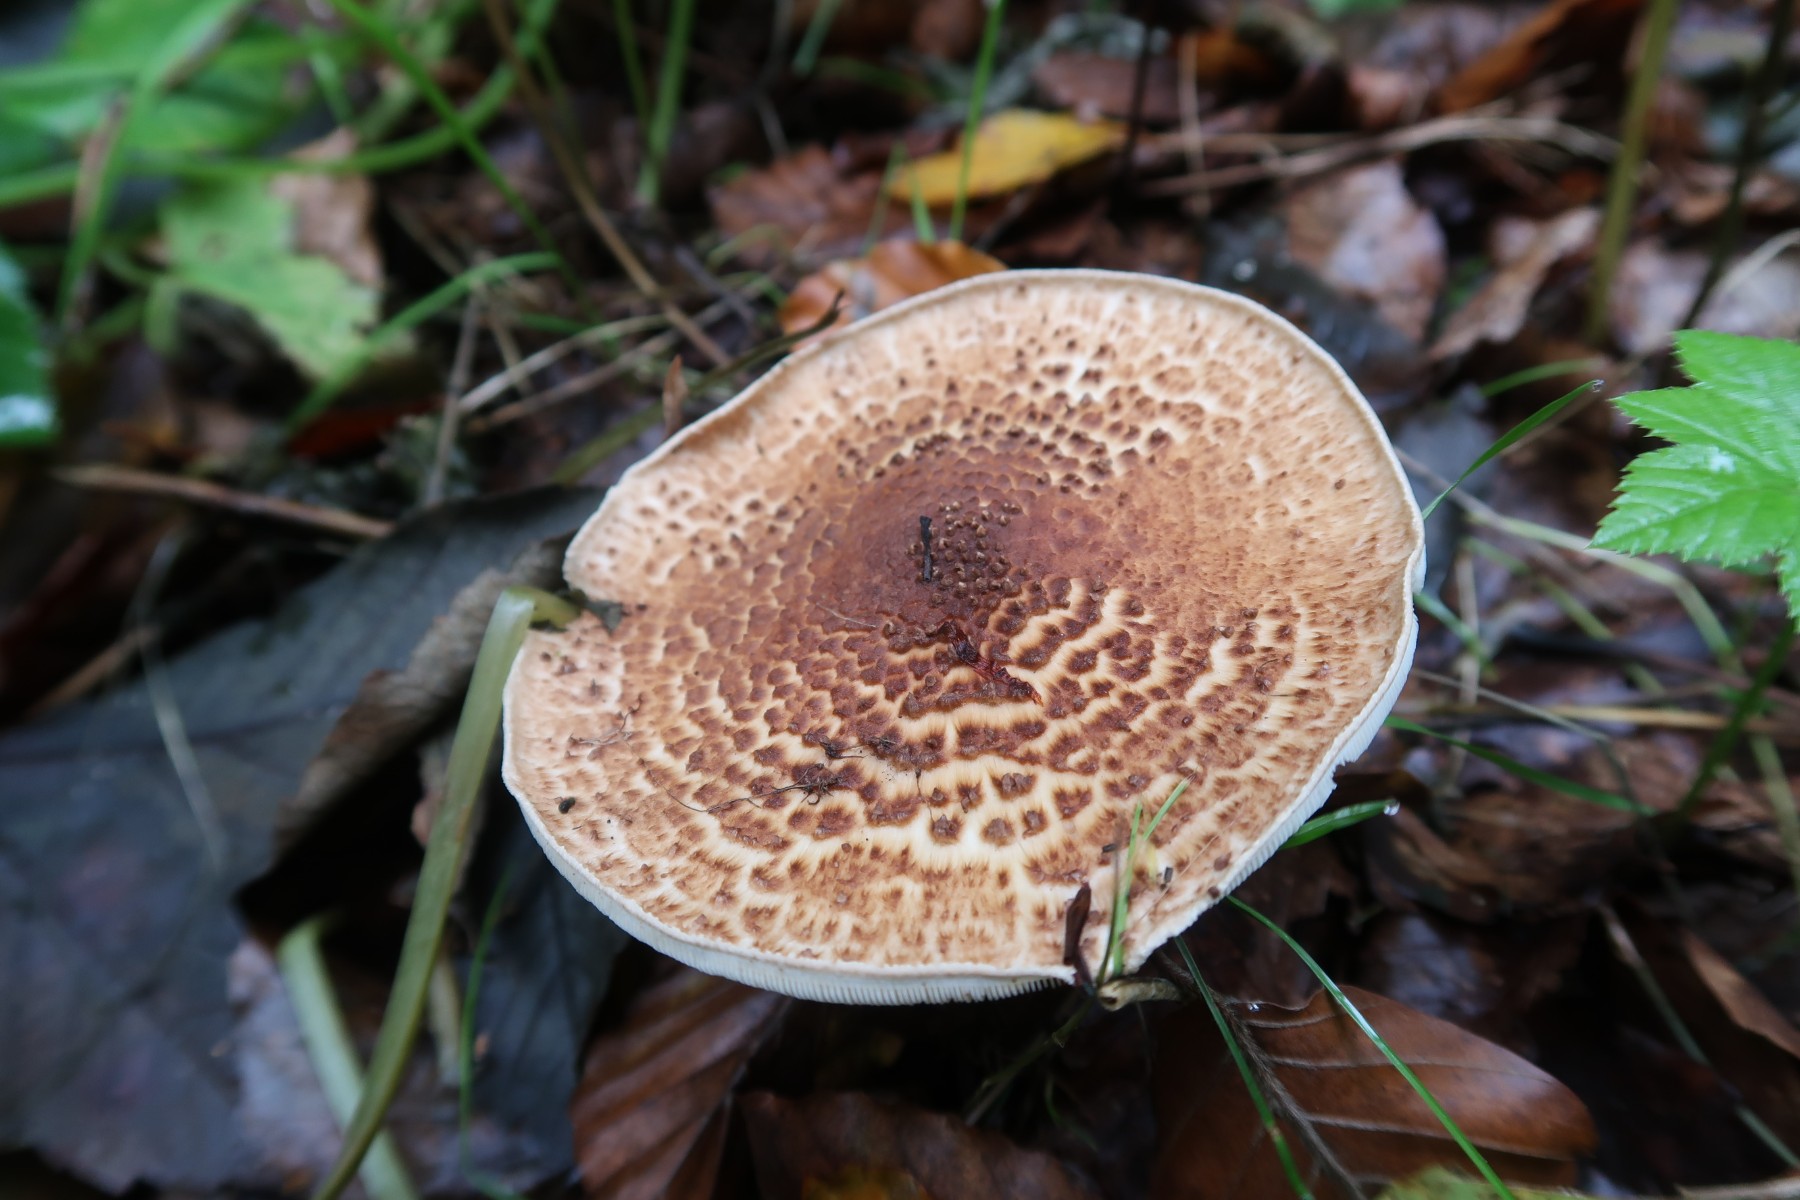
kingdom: Fungi
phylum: Basidiomycota
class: Agaricomycetes
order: Agaricales
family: Agaricaceae
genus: Echinoderma
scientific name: Echinoderma asperum
